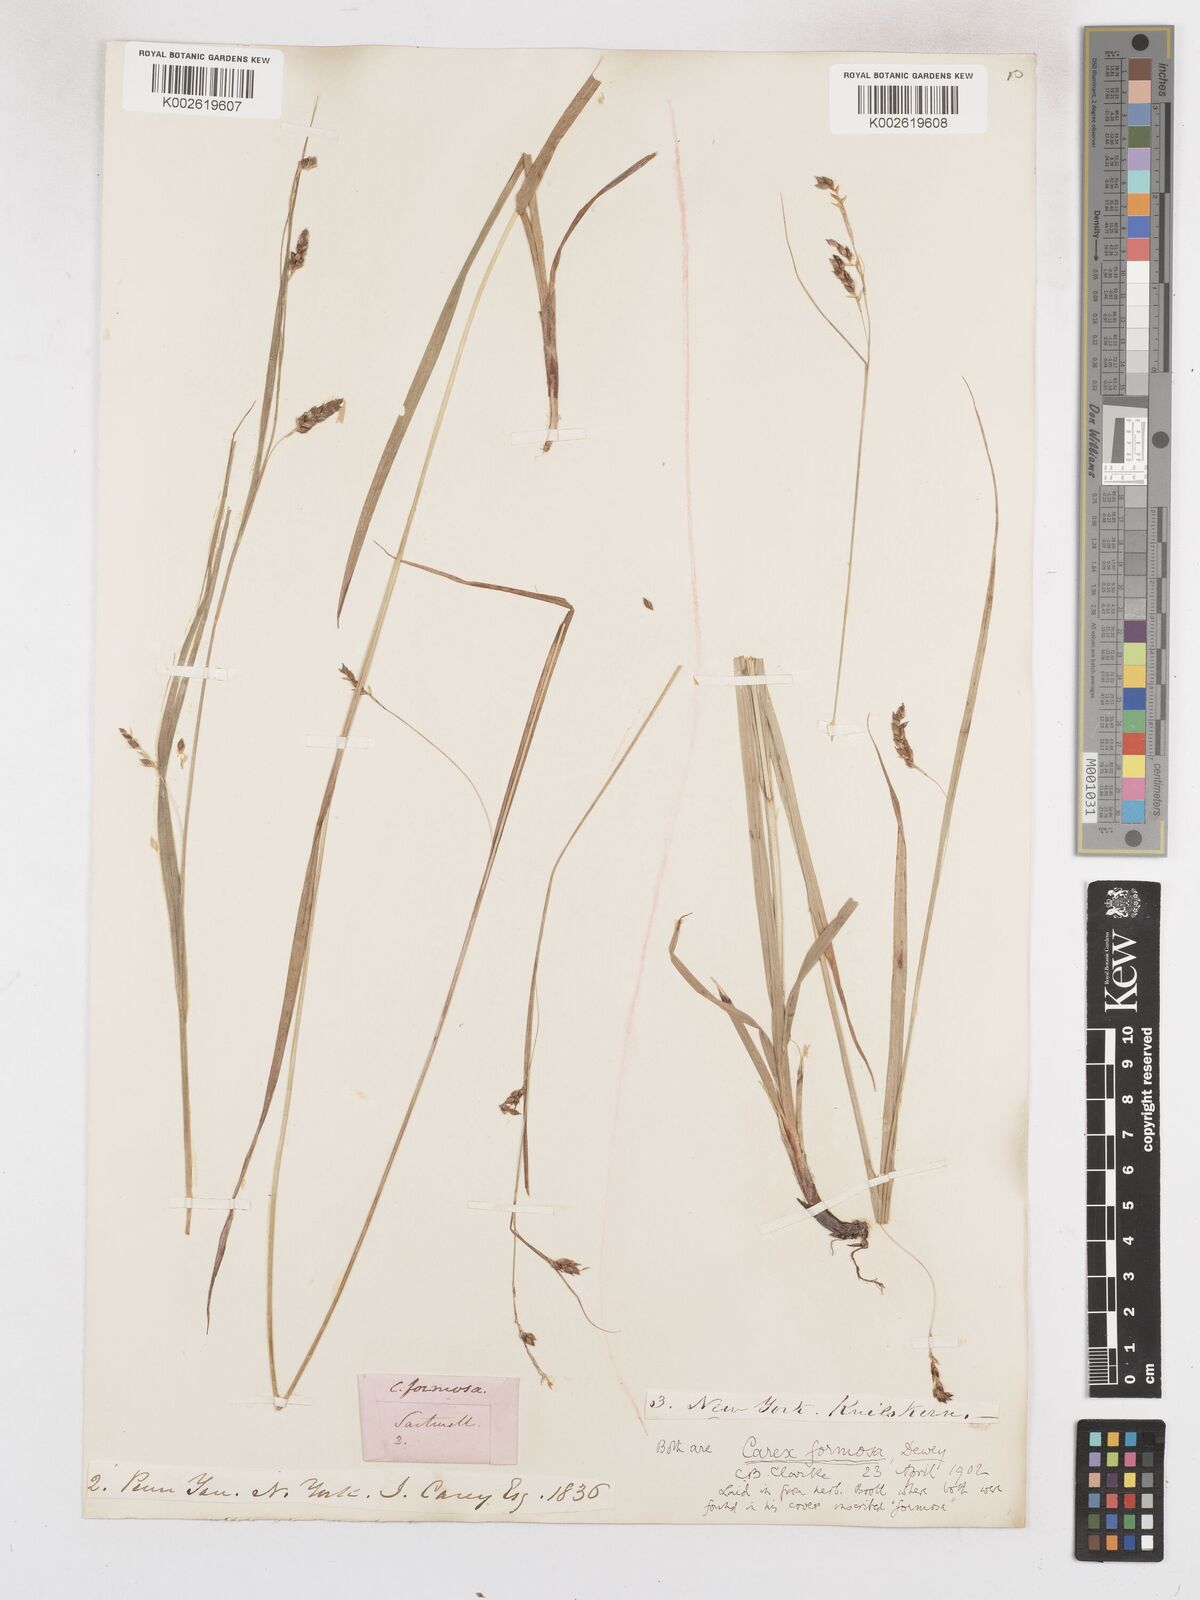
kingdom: Plantae
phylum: Tracheophyta
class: Liliopsida
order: Poales
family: Cyperaceae
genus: Carex
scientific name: Carex formosa
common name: Awnless graceful sedge
